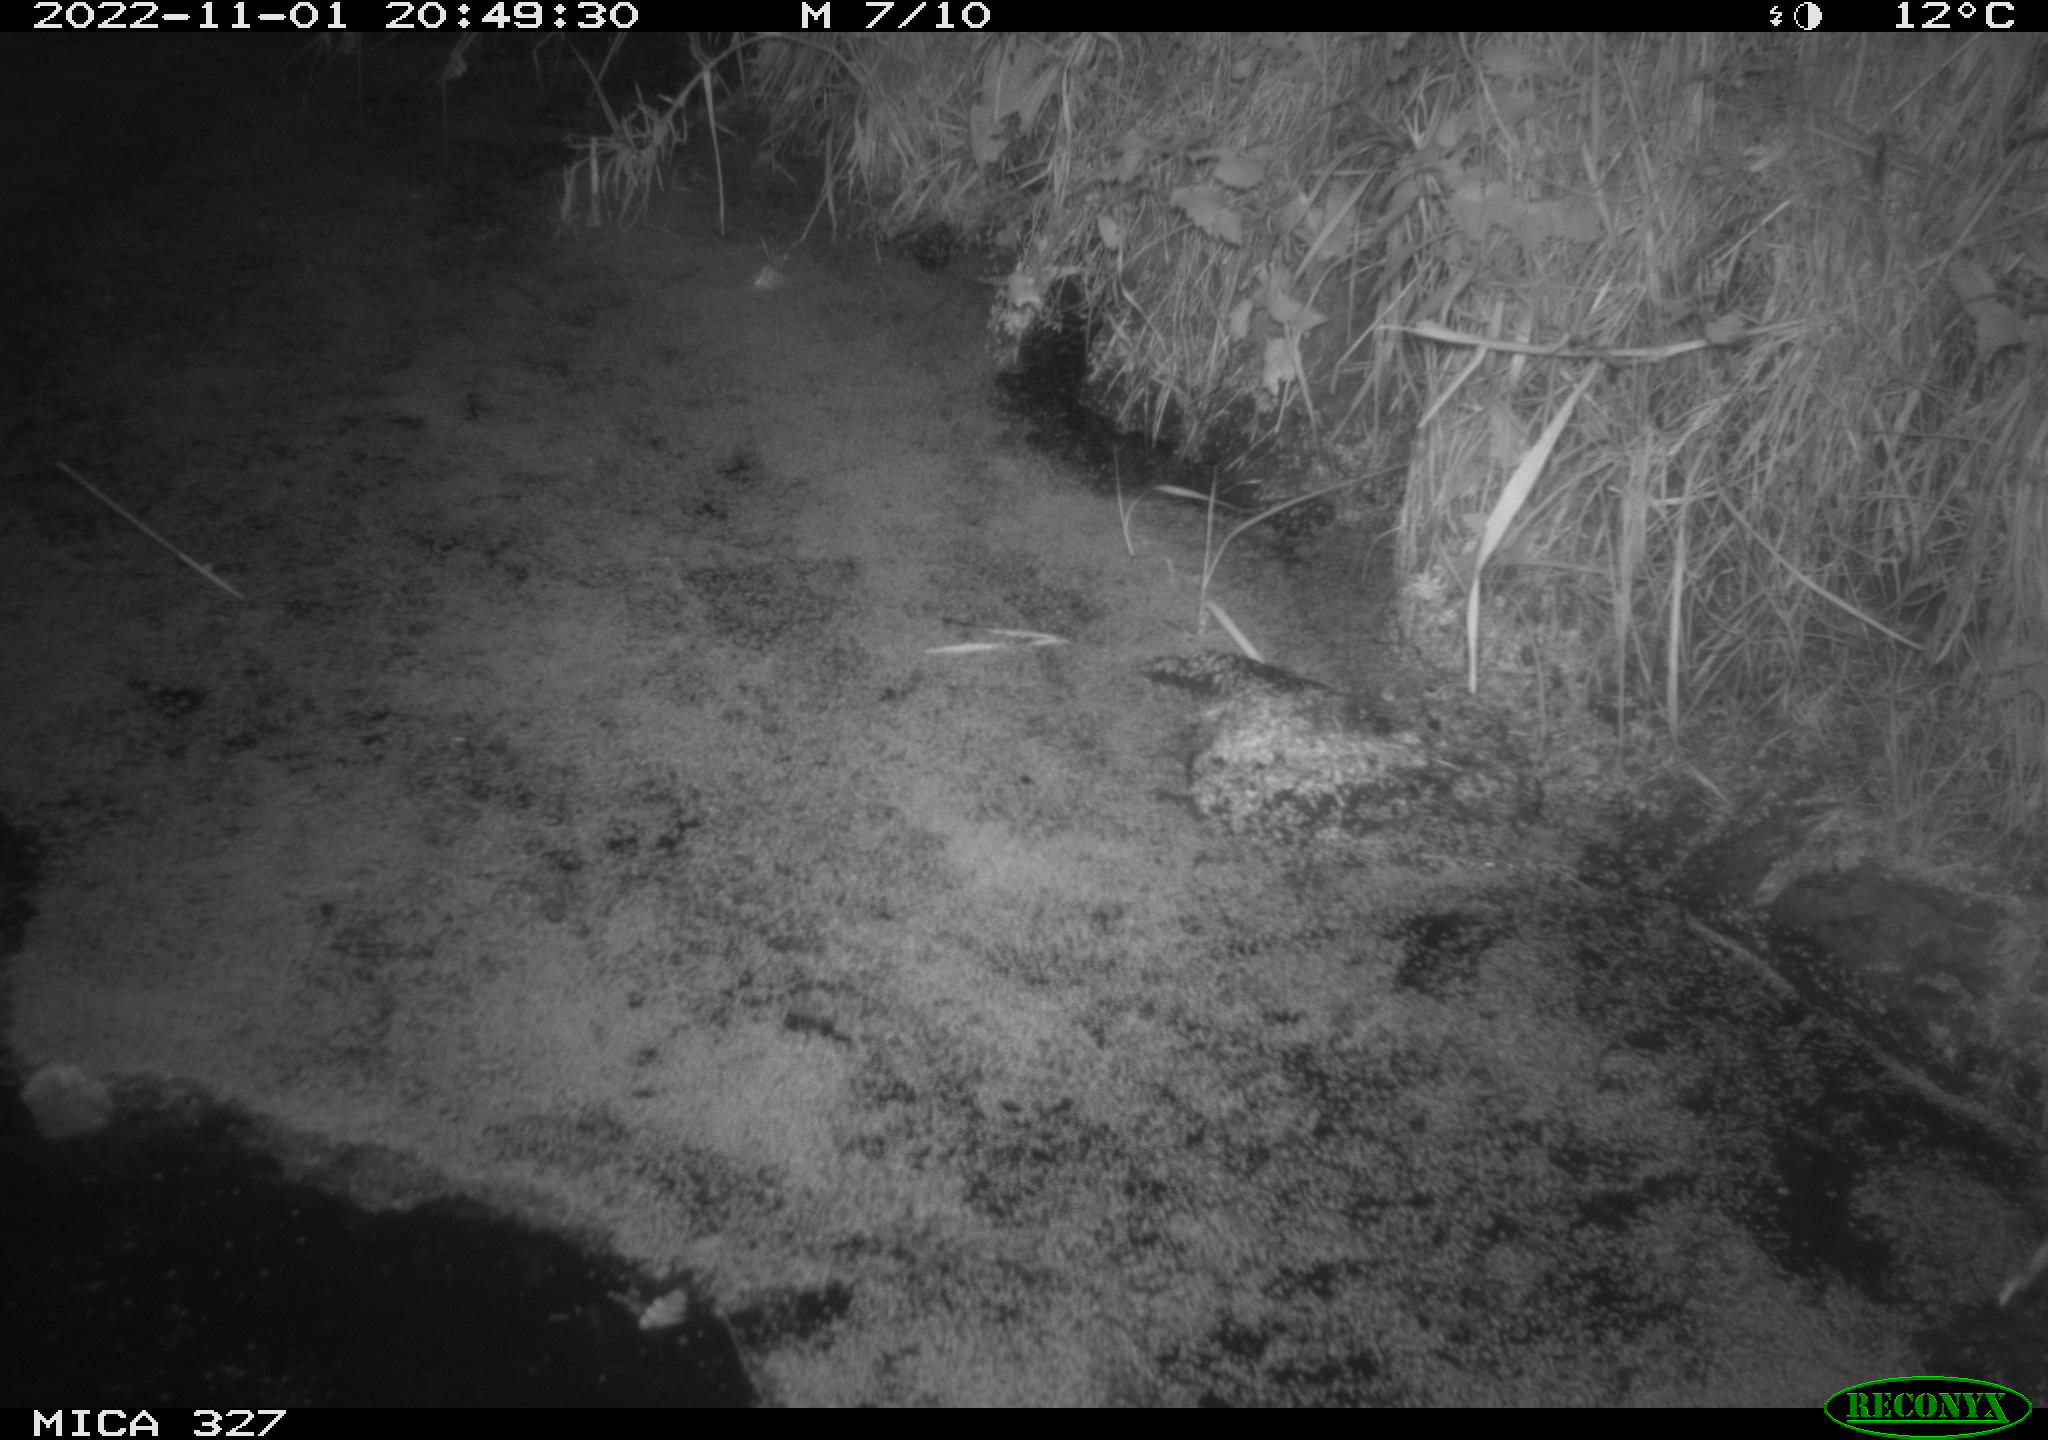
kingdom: Animalia
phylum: Chordata
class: Mammalia
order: Rodentia
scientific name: Rodentia
